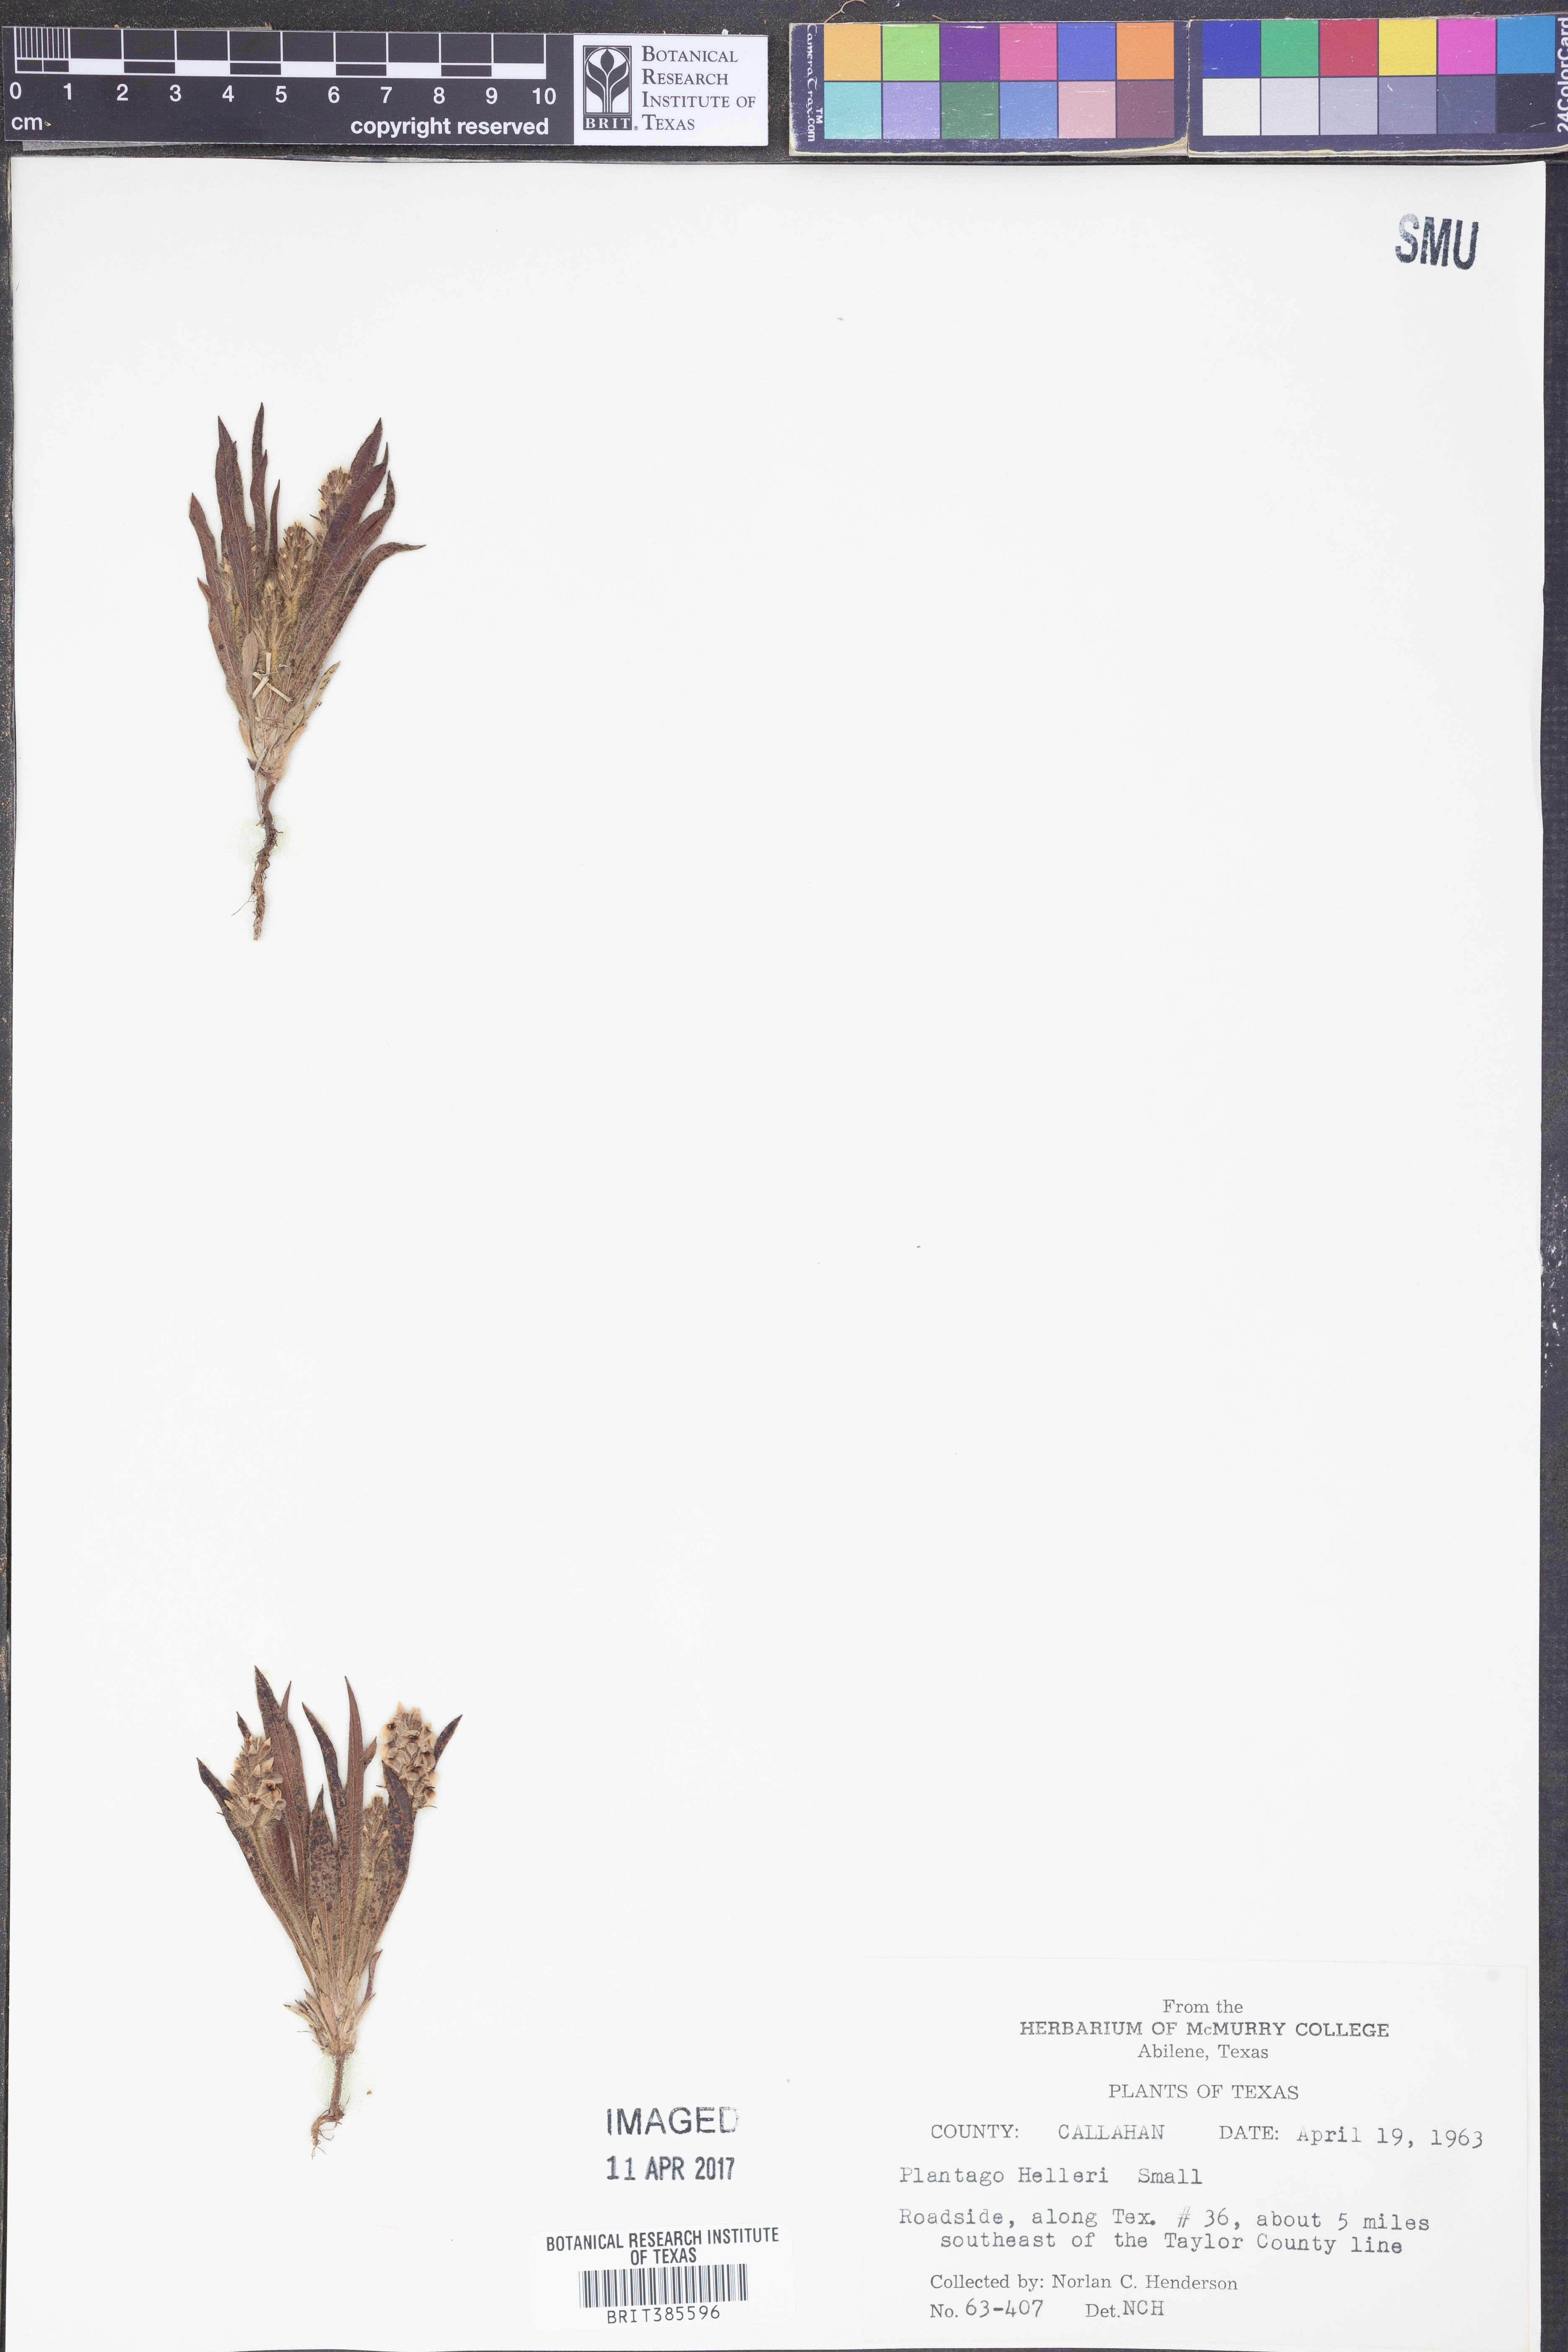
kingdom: Plantae
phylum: Tracheophyta
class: Magnoliopsida
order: Lamiales
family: Plantaginaceae
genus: Plantago
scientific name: Plantago helleri
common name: Heller's plantain
